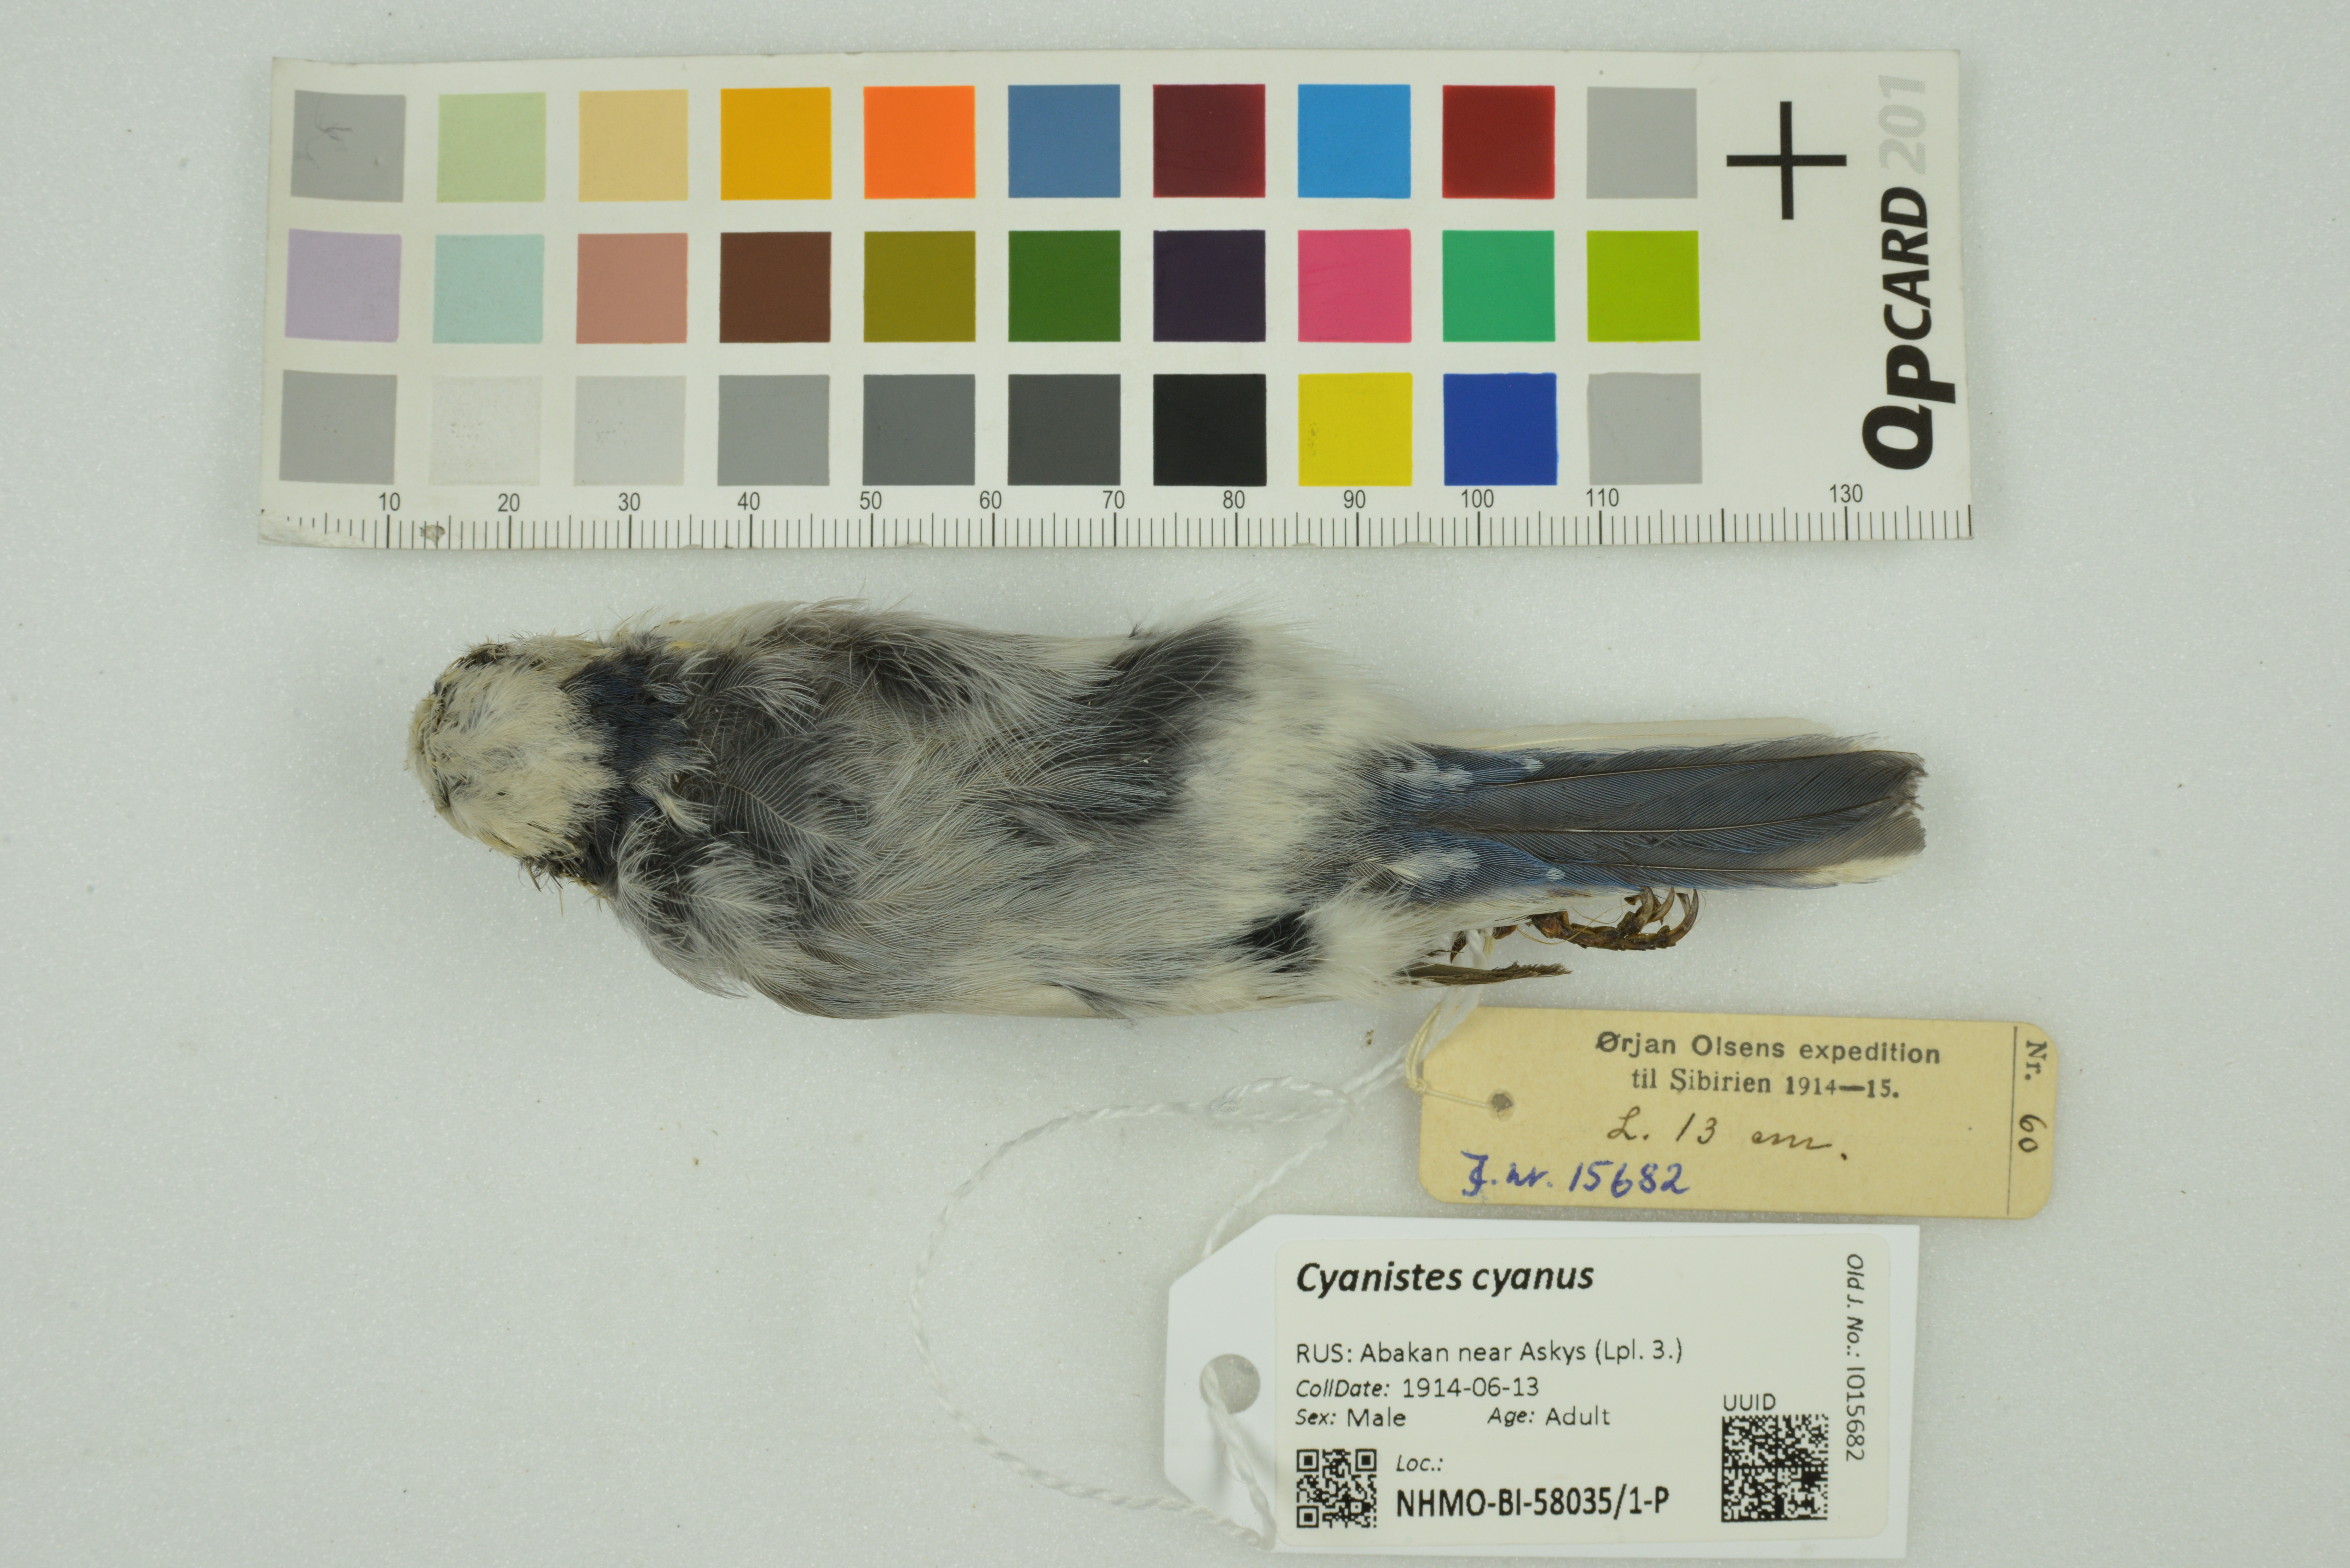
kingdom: Animalia
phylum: Chordata
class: Aves
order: Passeriformes
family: Paridae
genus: Cyanistes
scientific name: Cyanistes cyanus
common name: Azure tit
